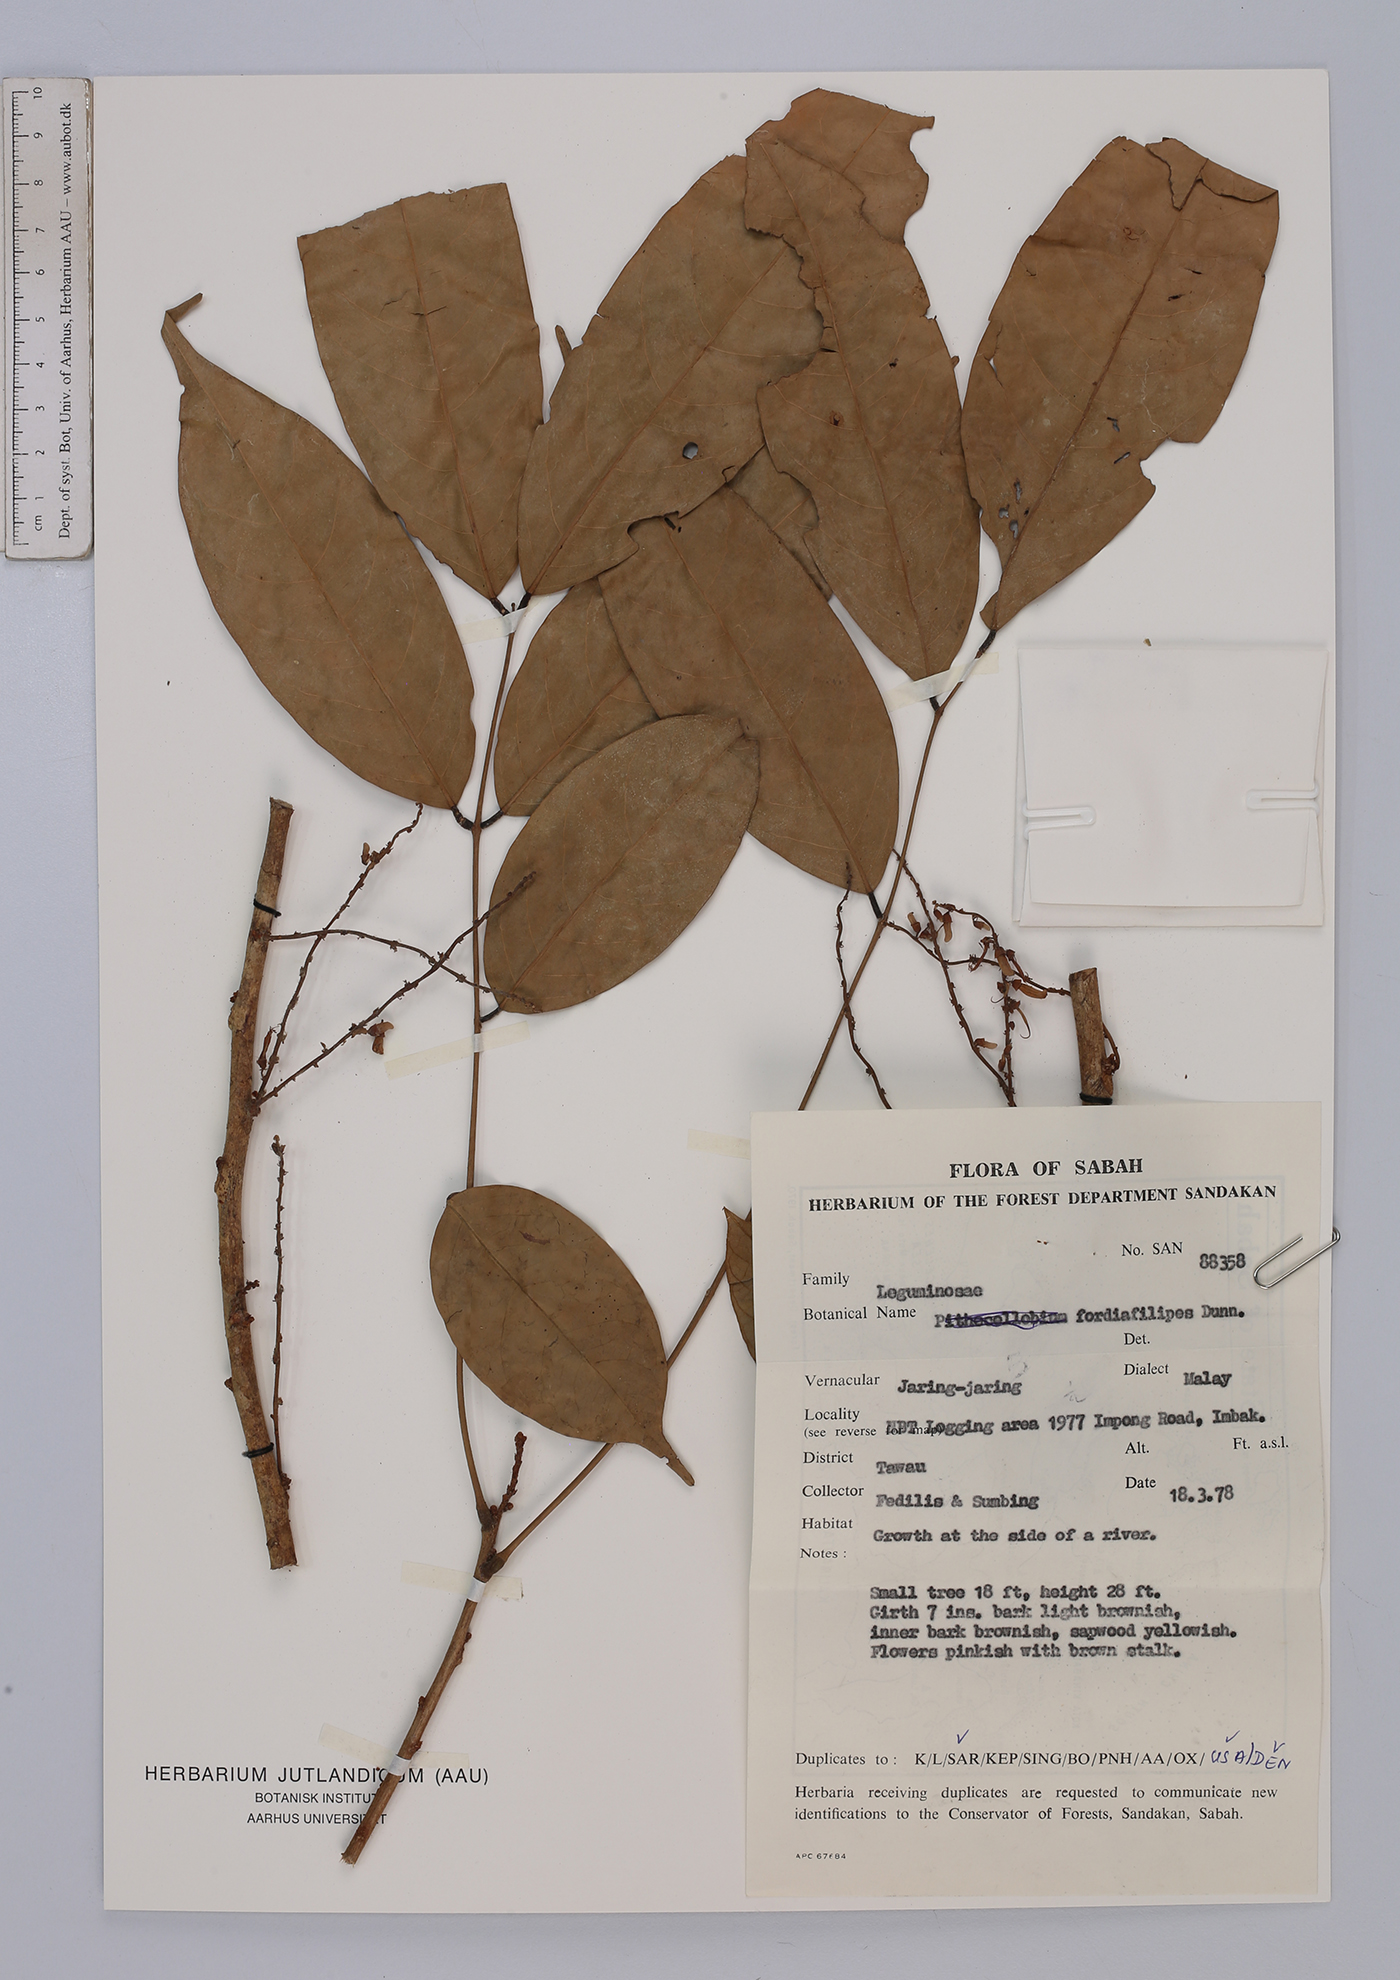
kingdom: Plantae
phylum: Tracheophyta
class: Magnoliopsida
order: Fabales
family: Fabaceae
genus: Fordia
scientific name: Fordia splendidissima
